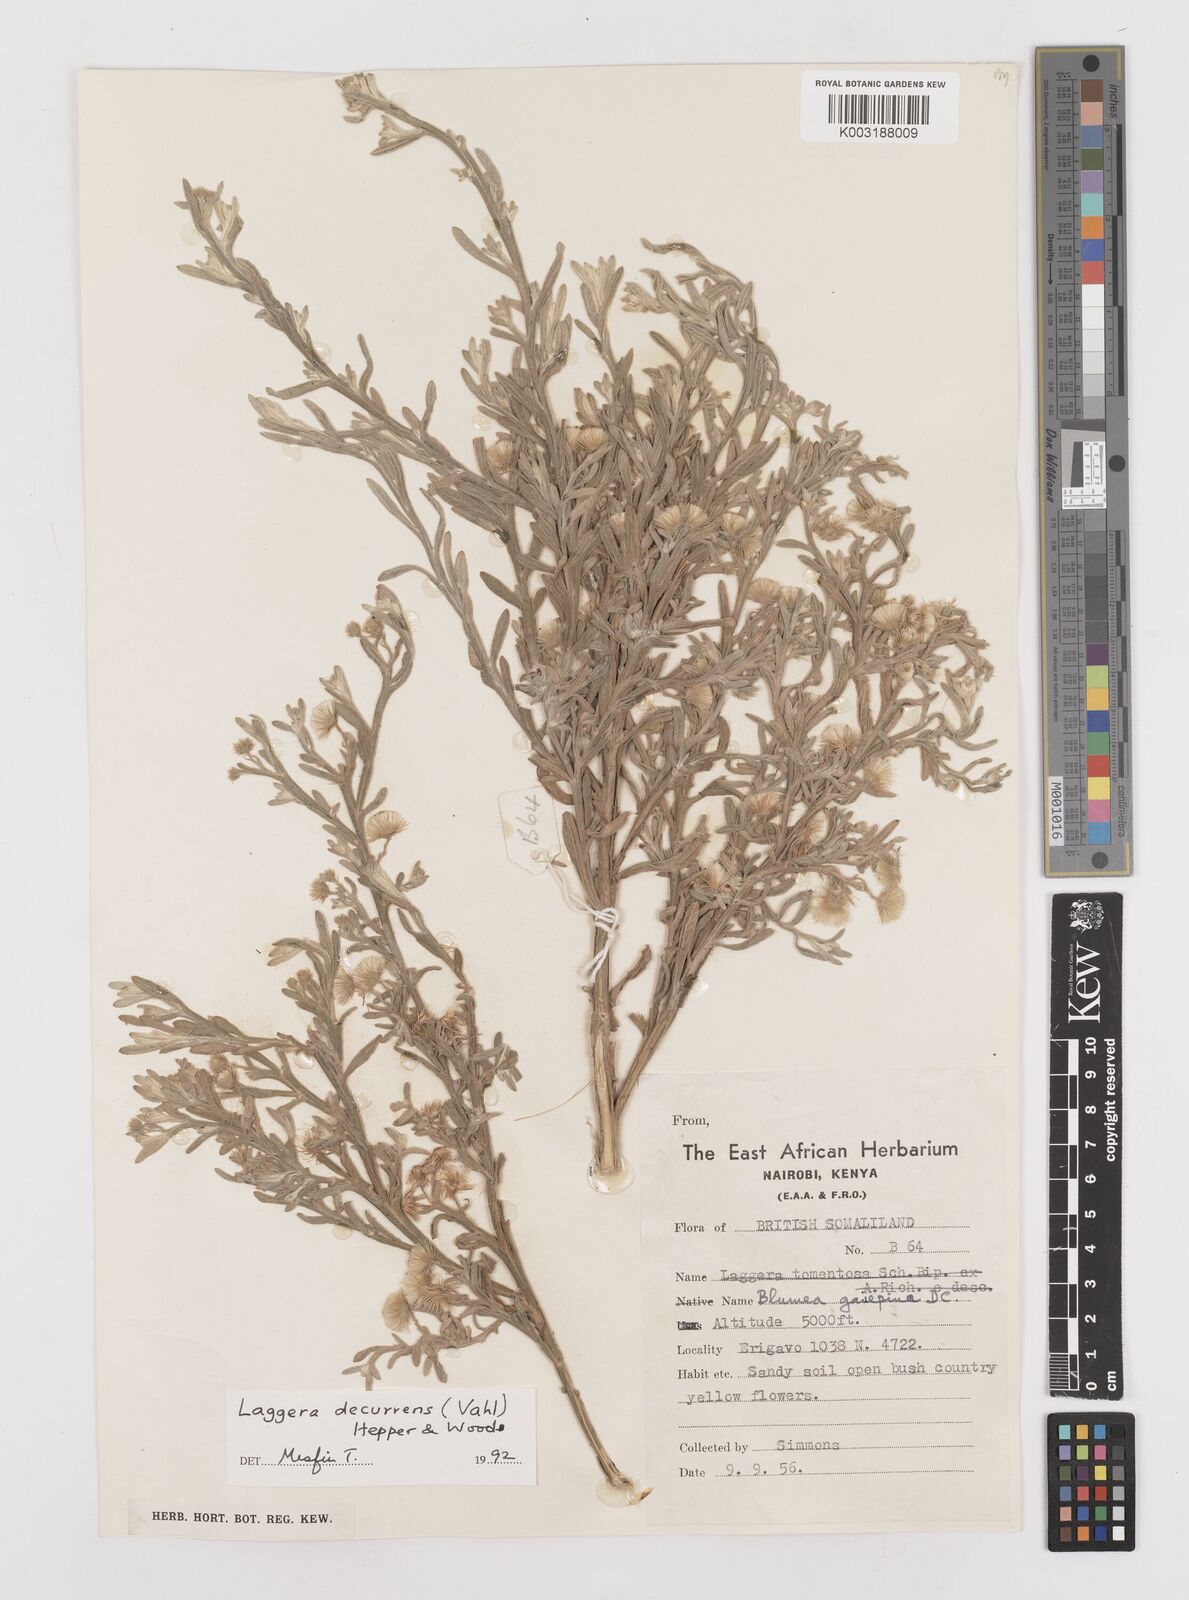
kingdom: Plantae
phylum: Tracheophyta
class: Magnoliopsida
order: Asterales
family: Asteraceae
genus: Laggera
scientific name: Laggera
